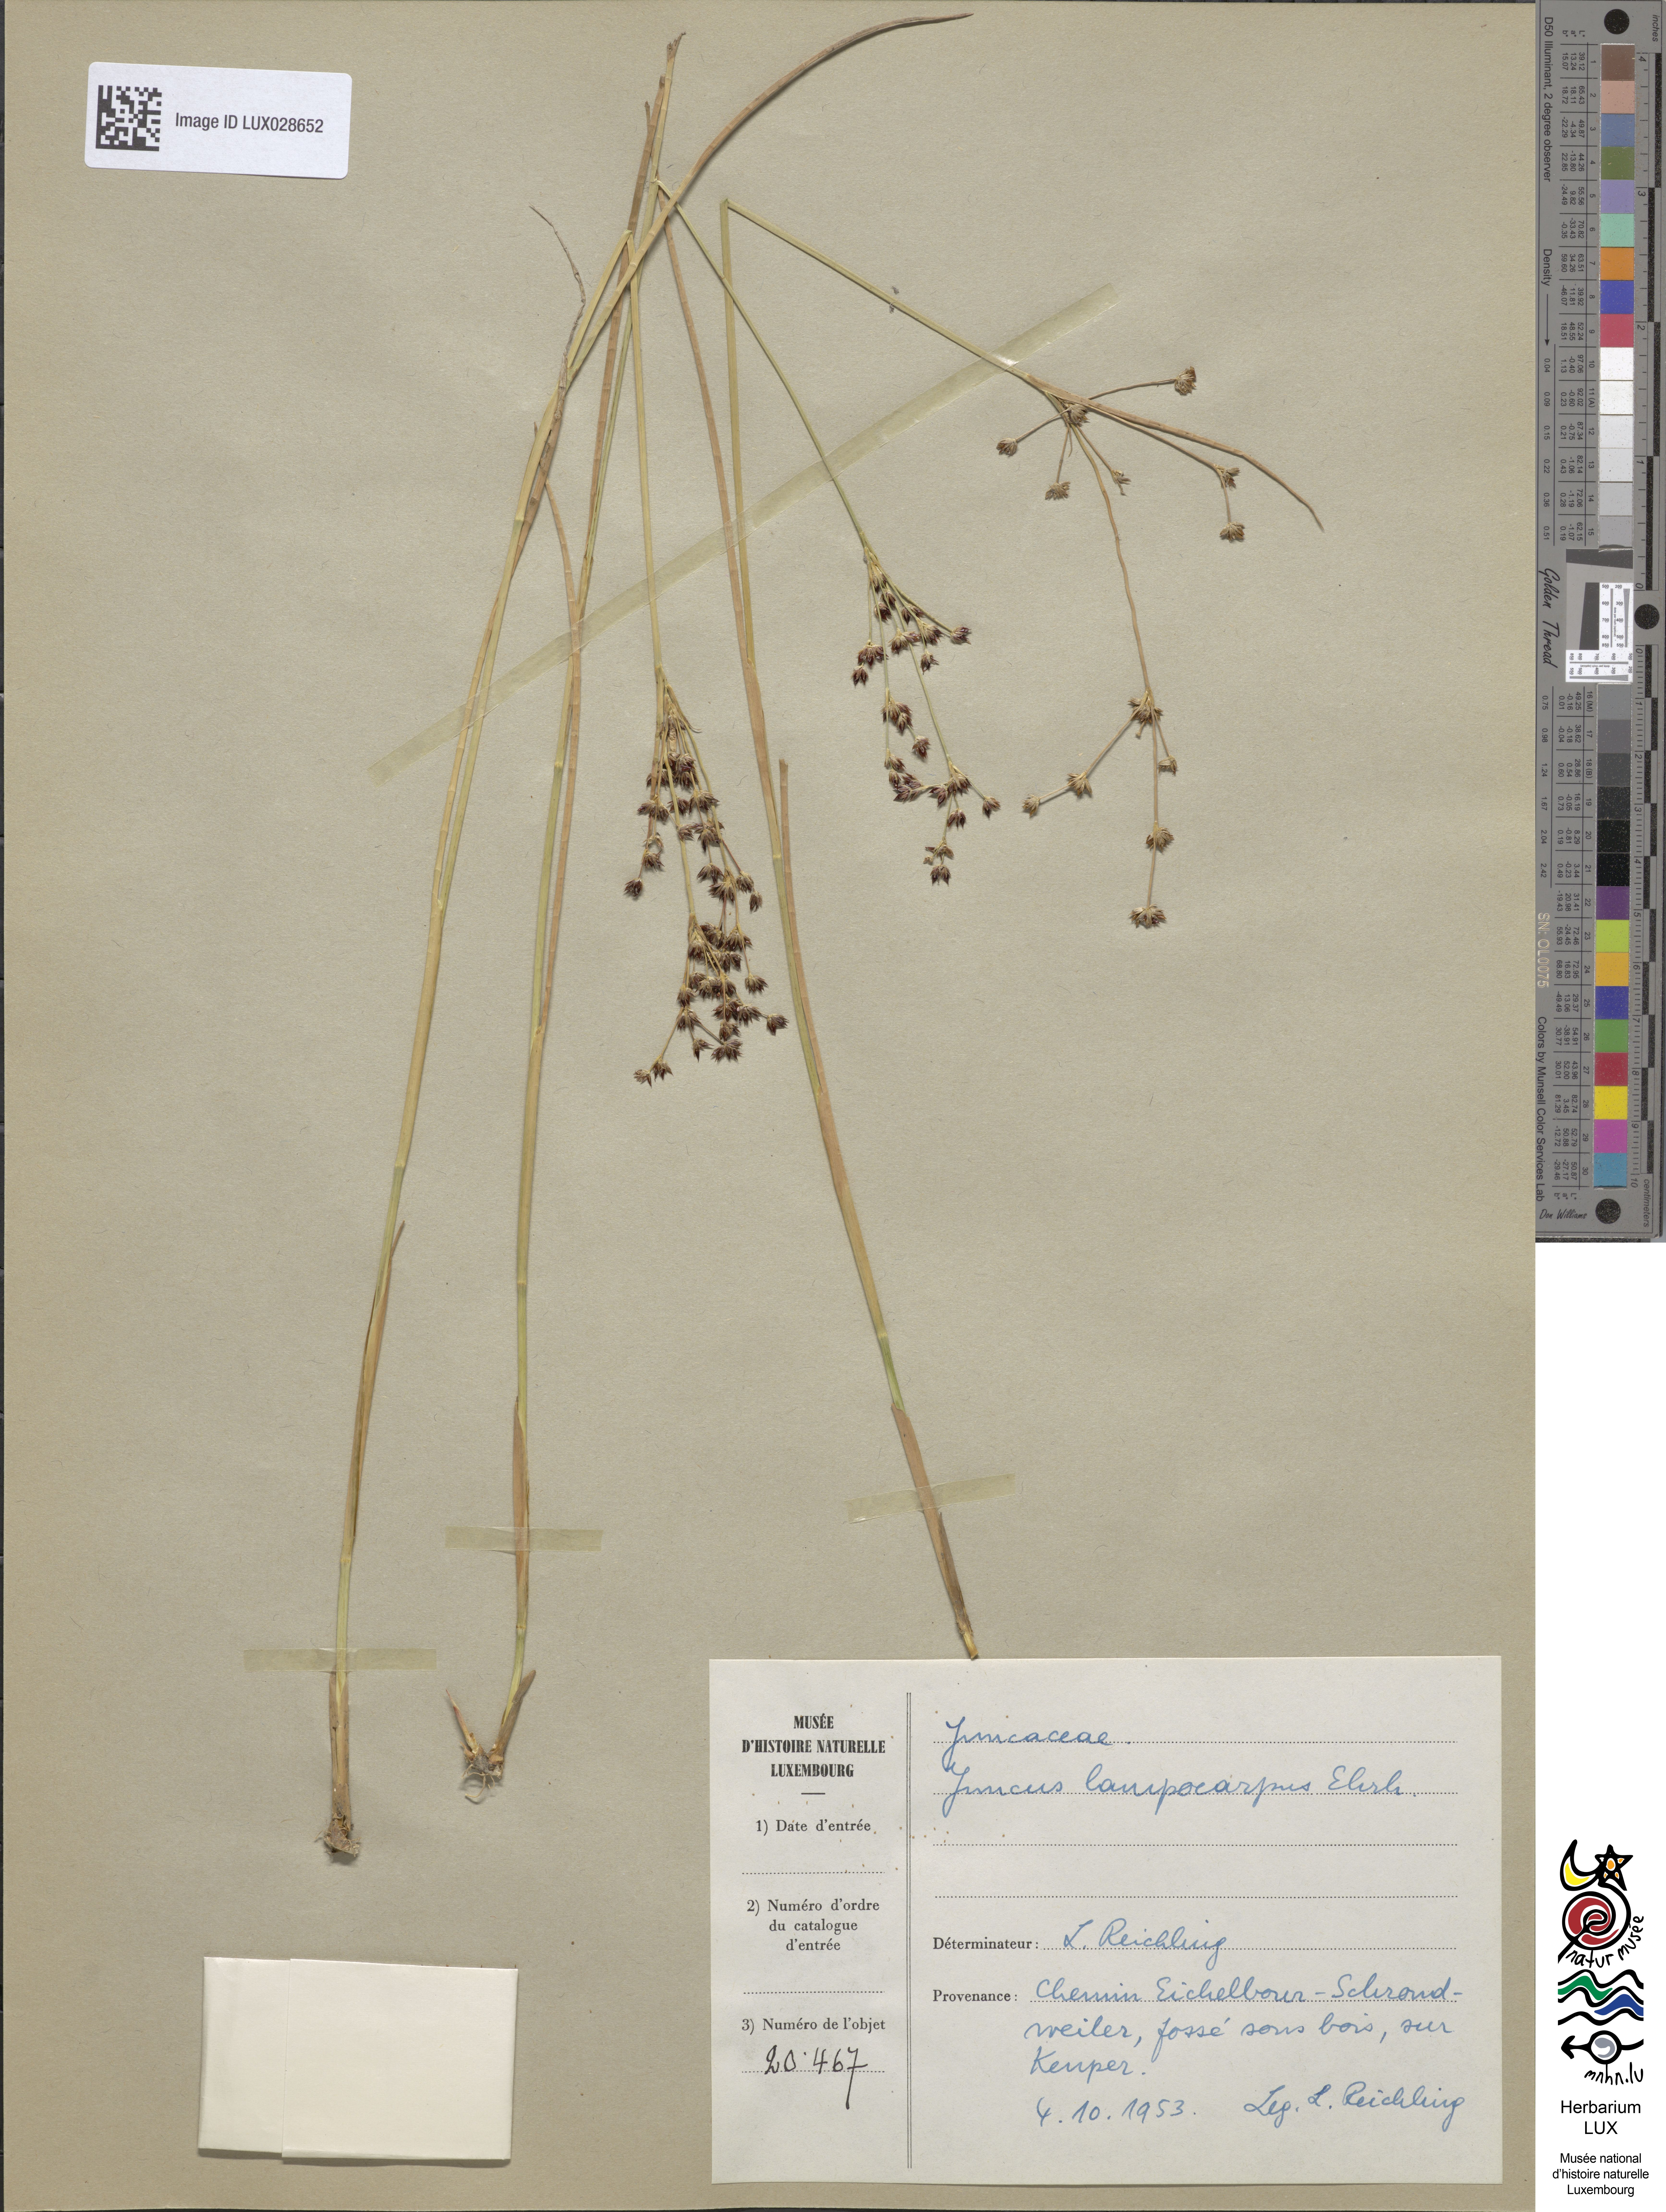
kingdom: Plantae
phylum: Tracheophyta
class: Liliopsida
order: Poales
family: Juncaceae
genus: Juncus
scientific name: Juncus articulatus
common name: Jointed rush
